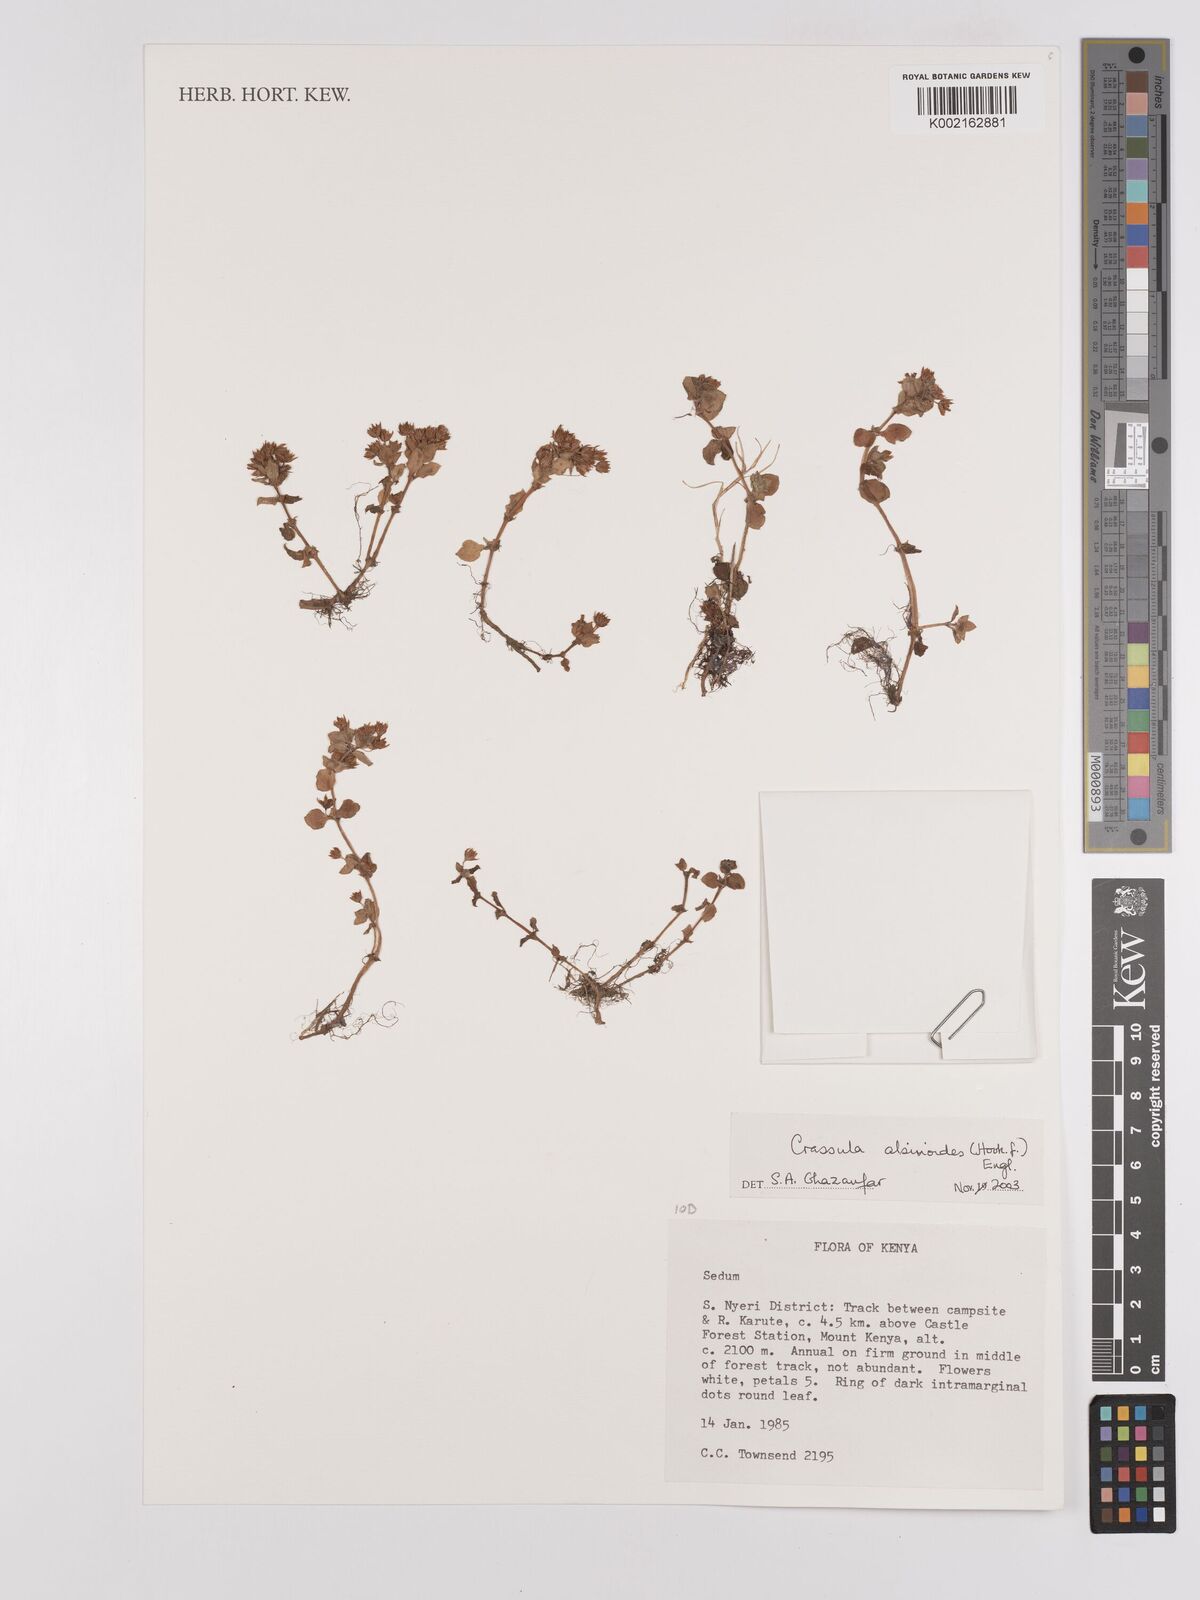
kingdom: Plantae
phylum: Tracheophyta
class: Magnoliopsida
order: Saxifragales
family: Crassulaceae
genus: Crassula
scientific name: Crassula alsinoides
